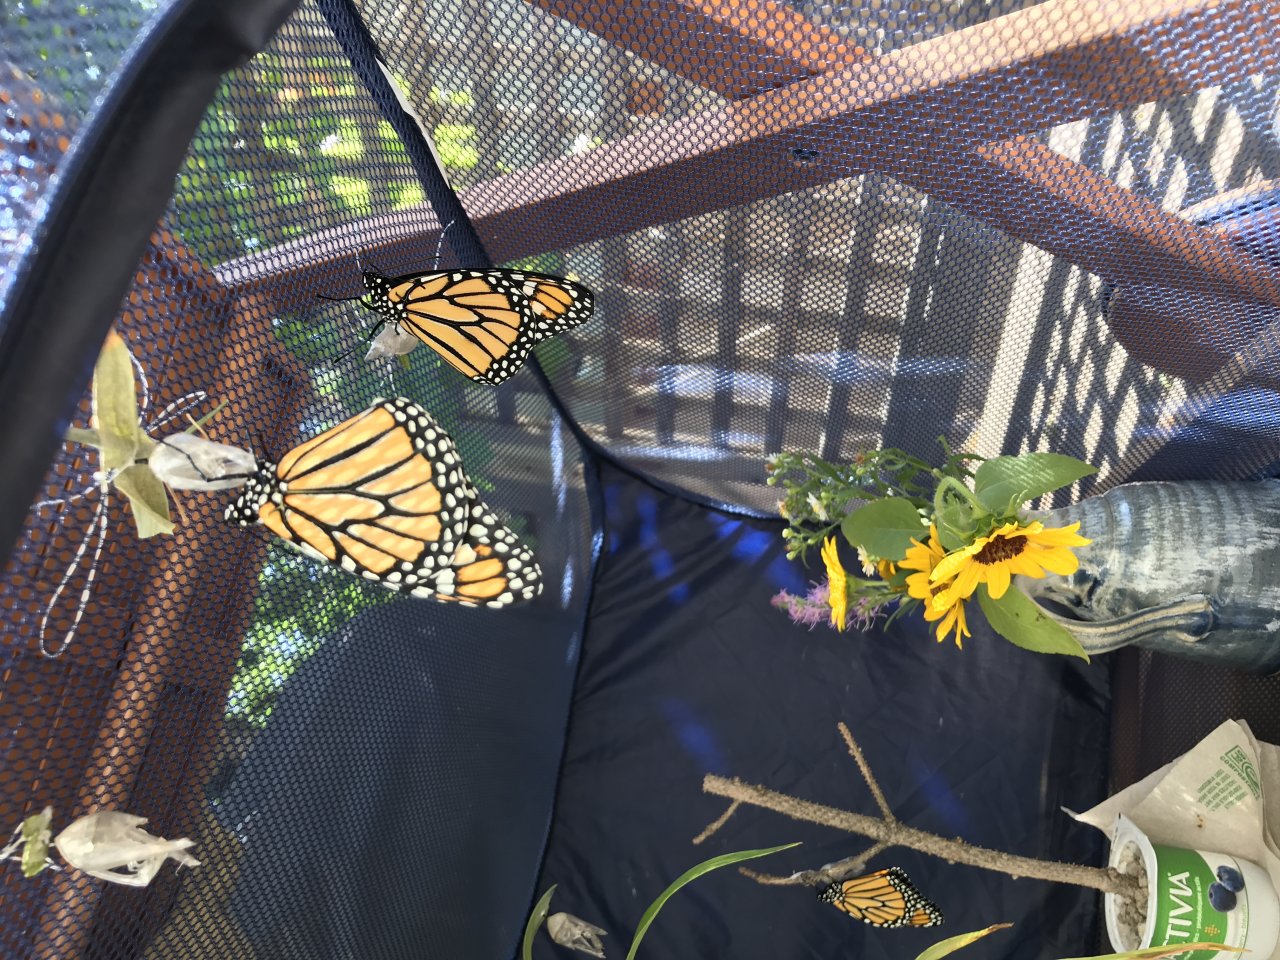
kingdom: Animalia
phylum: Arthropoda
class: Insecta
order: Lepidoptera
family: Nymphalidae
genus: Danaus
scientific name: Danaus plexippus
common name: Monarch
